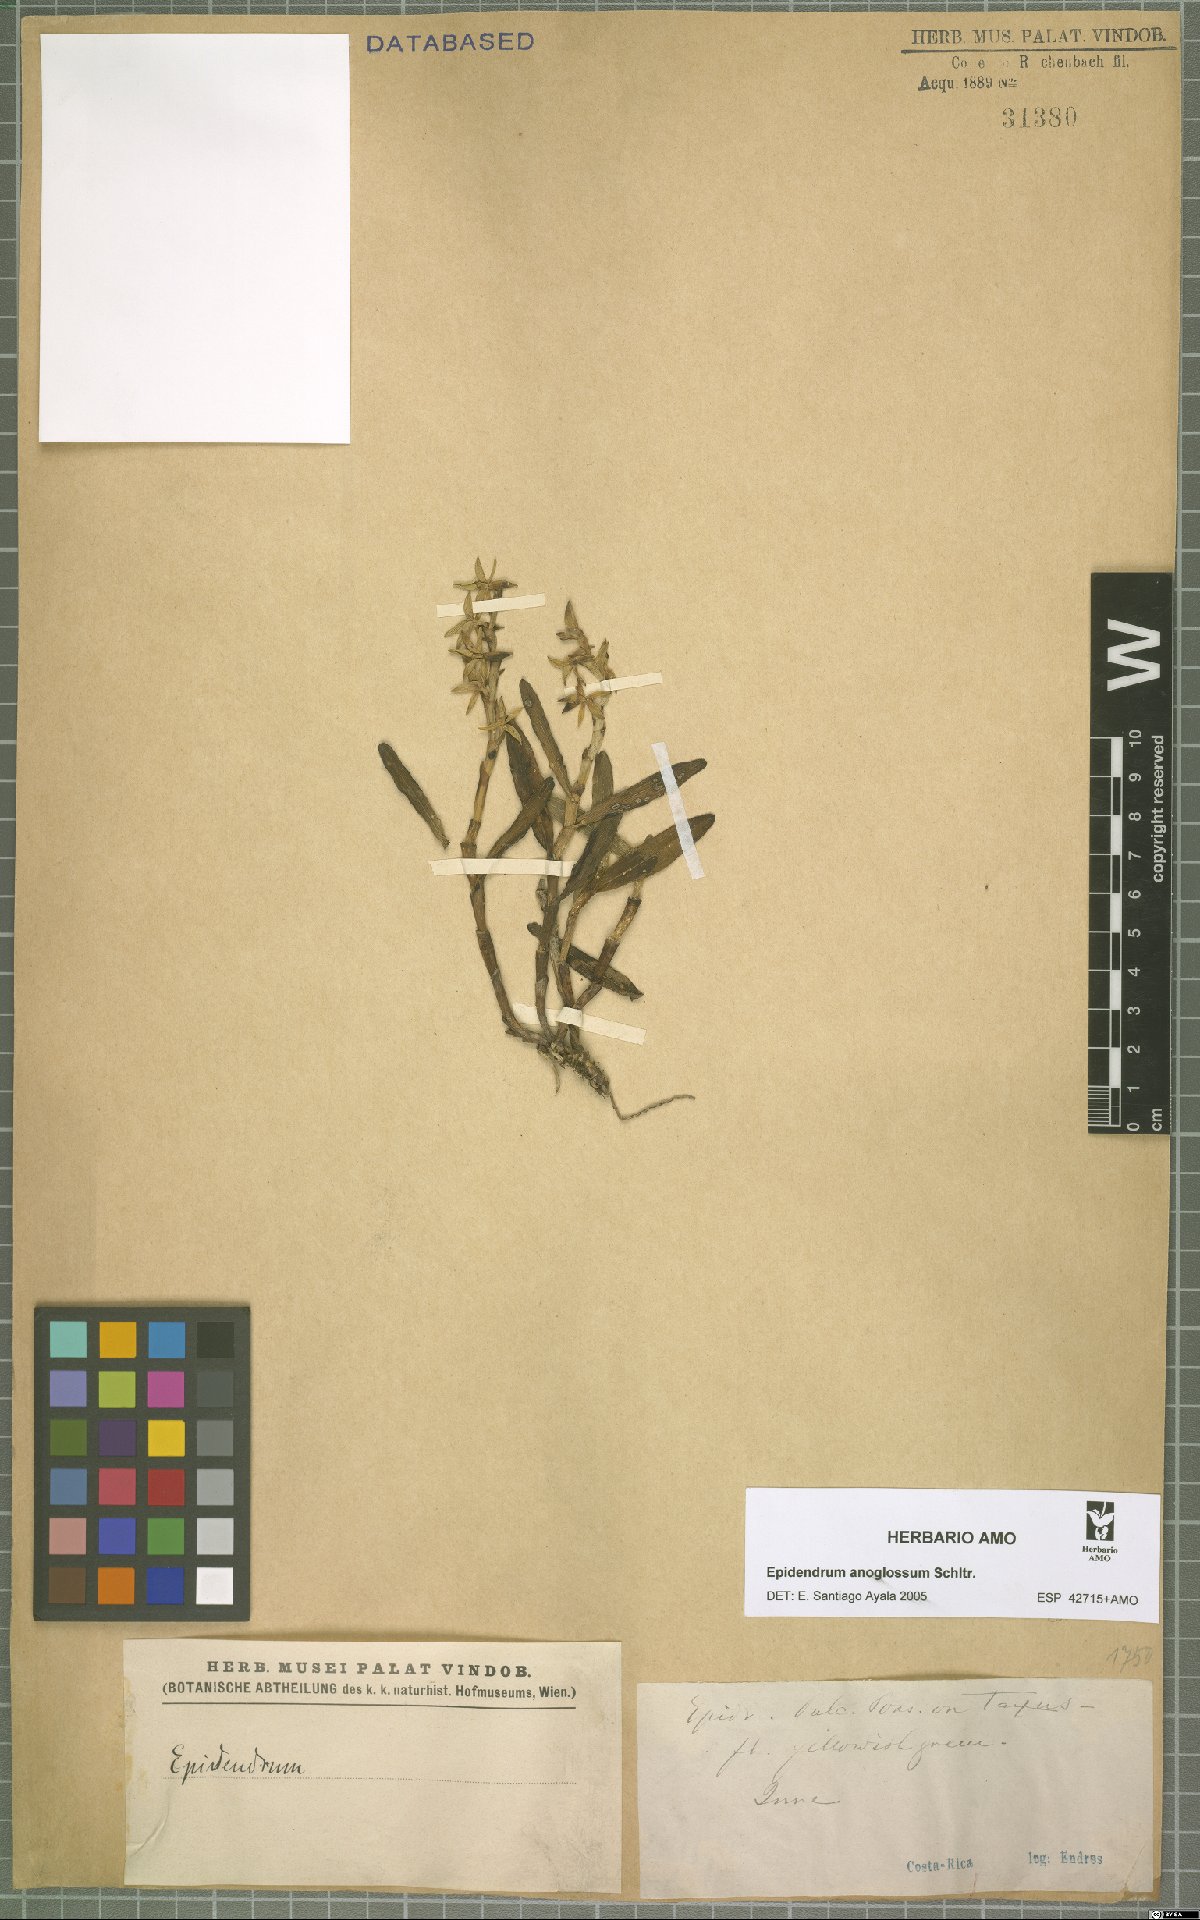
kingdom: Plantae
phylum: Tracheophyta
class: Liliopsida
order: Asparagales
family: Orchidaceae
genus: Epidendrum
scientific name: Epidendrum anoglossum
